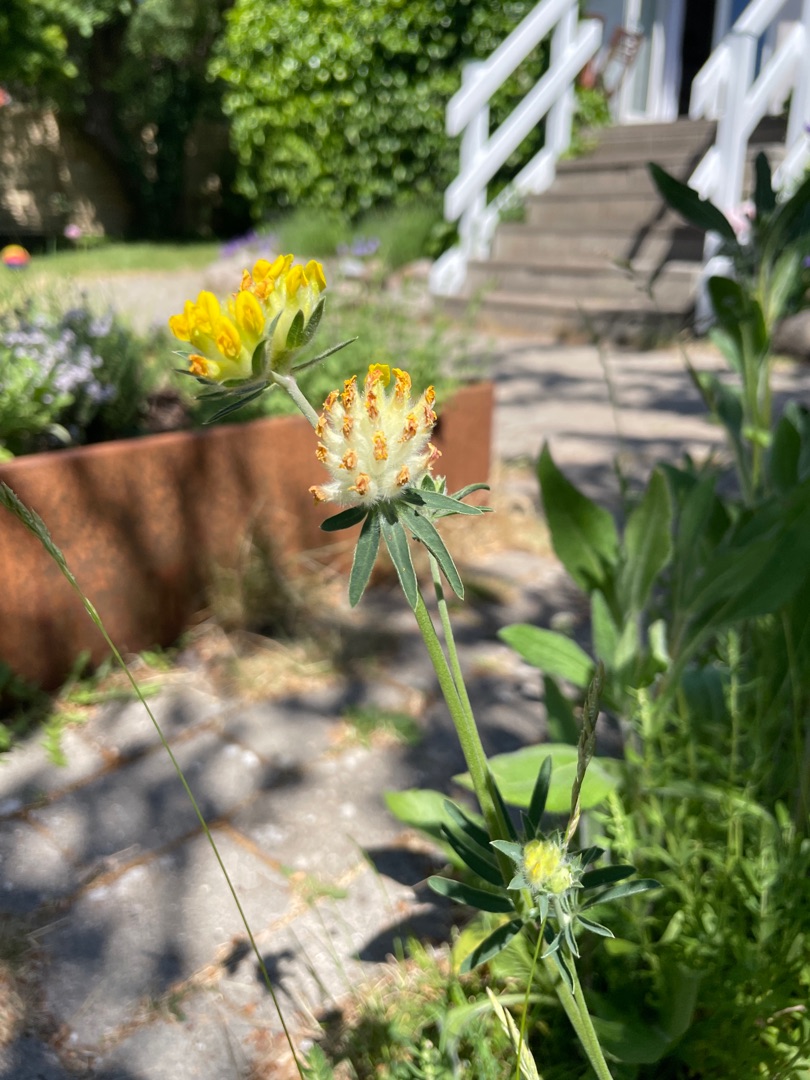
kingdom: Plantae
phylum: Tracheophyta
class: Magnoliopsida
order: Fabales
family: Fabaceae
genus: Anthyllis
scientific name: Anthyllis vulneraria
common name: Rundbælg
